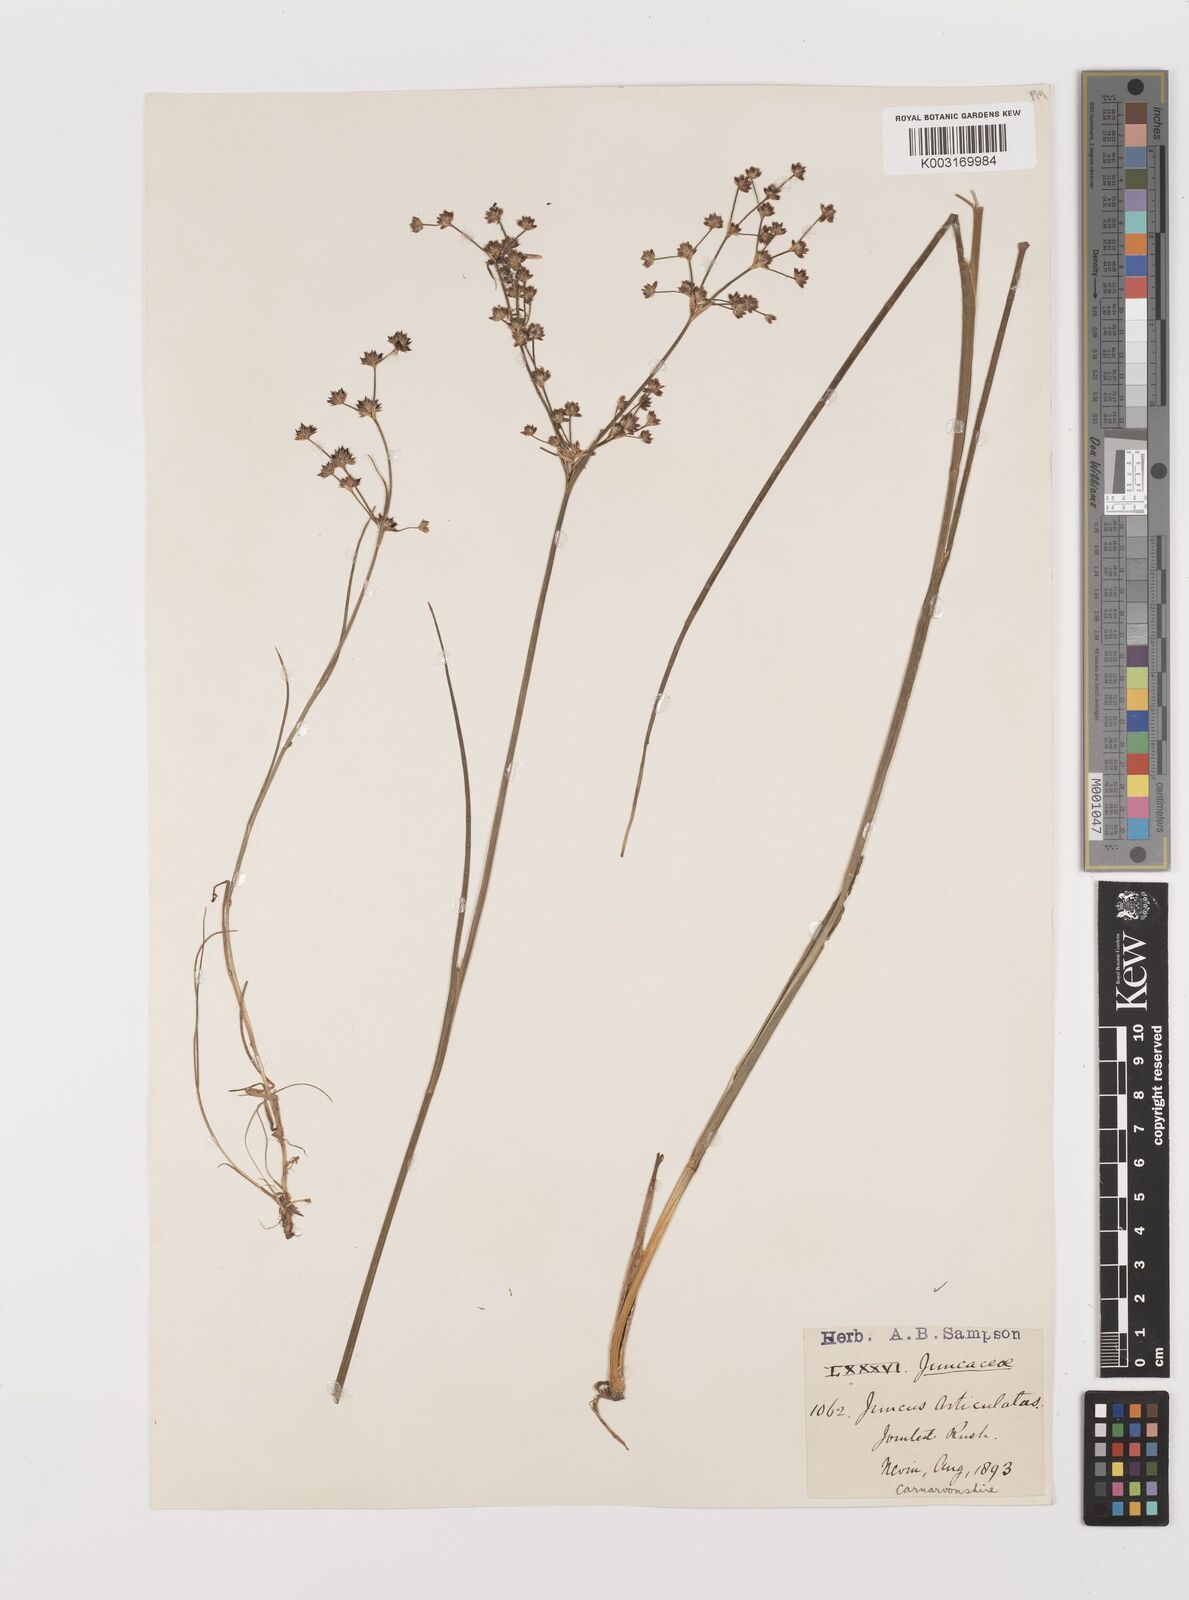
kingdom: Plantae
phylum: Tracheophyta
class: Liliopsida
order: Poales
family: Juncaceae
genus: Juncus
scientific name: Juncus articulatus
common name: Jointed rush
